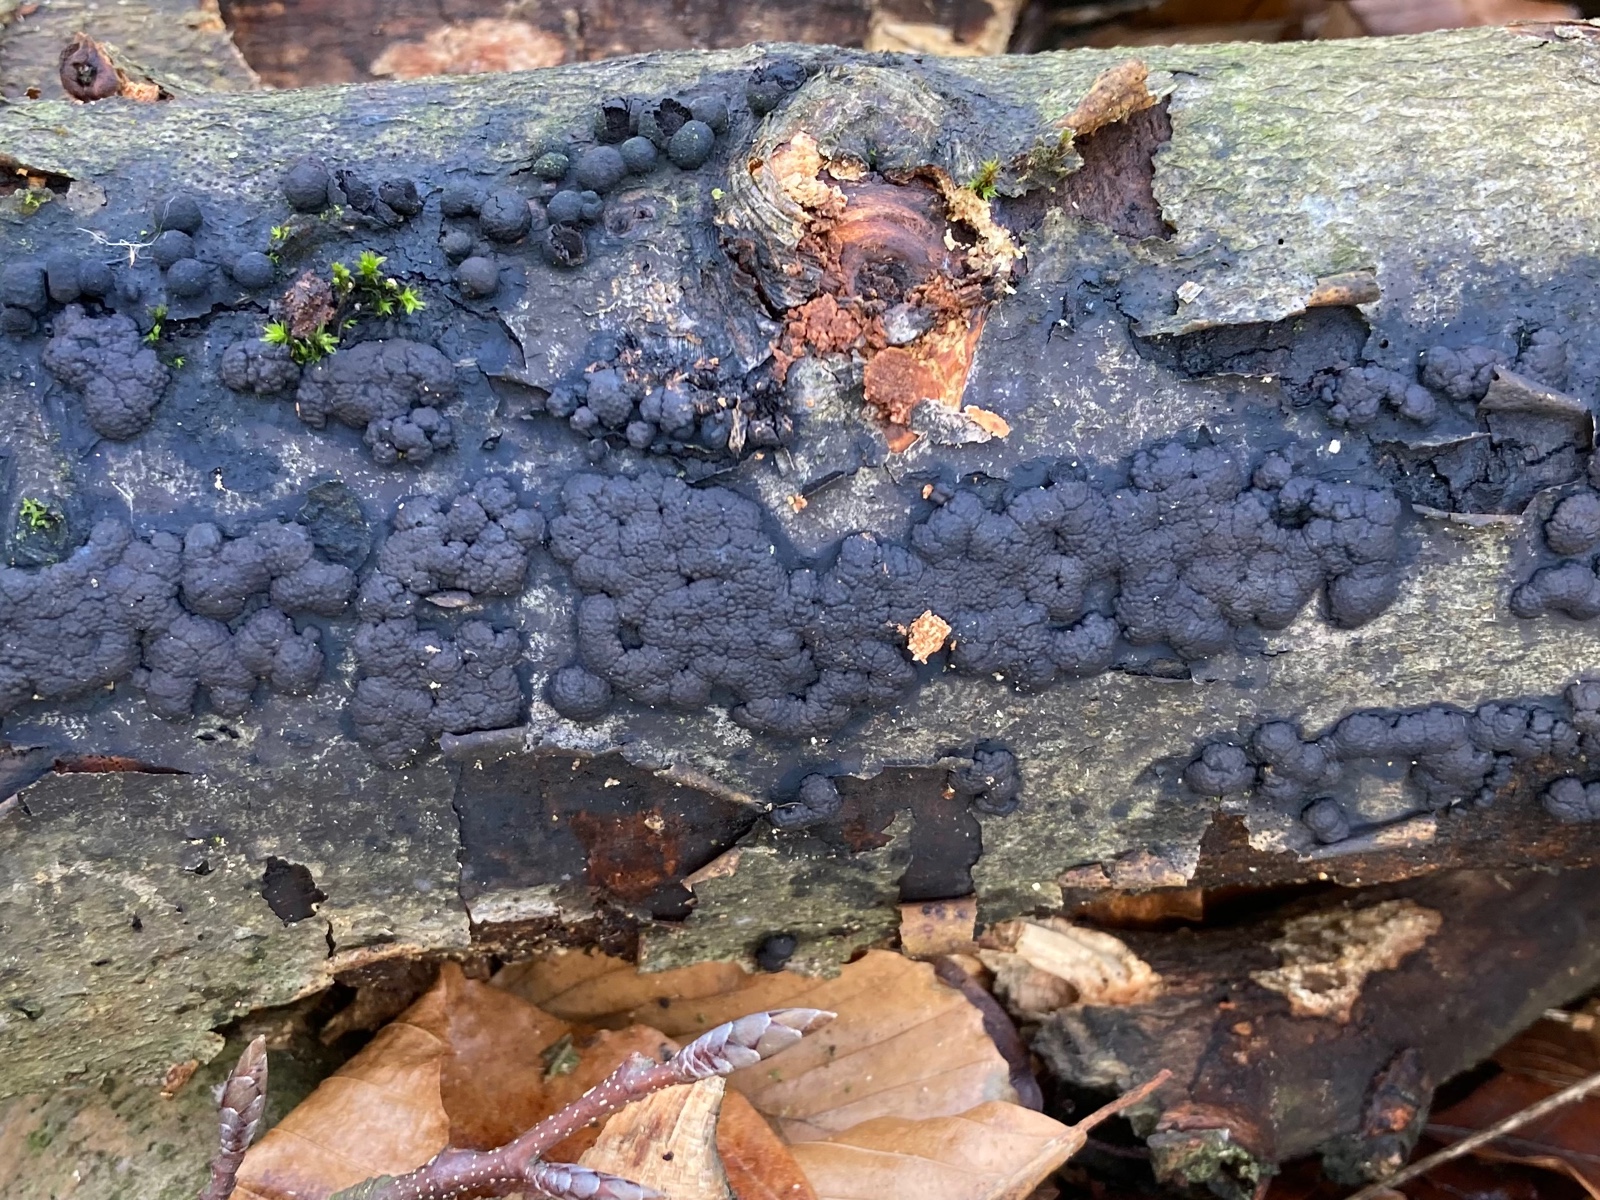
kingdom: Fungi
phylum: Ascomycota
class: Sordariomycetes
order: Xylariales
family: Hypoxylaceae
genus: Jackrogersella
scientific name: Jackrogersella cohaerens
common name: sammenflydende kulbær
